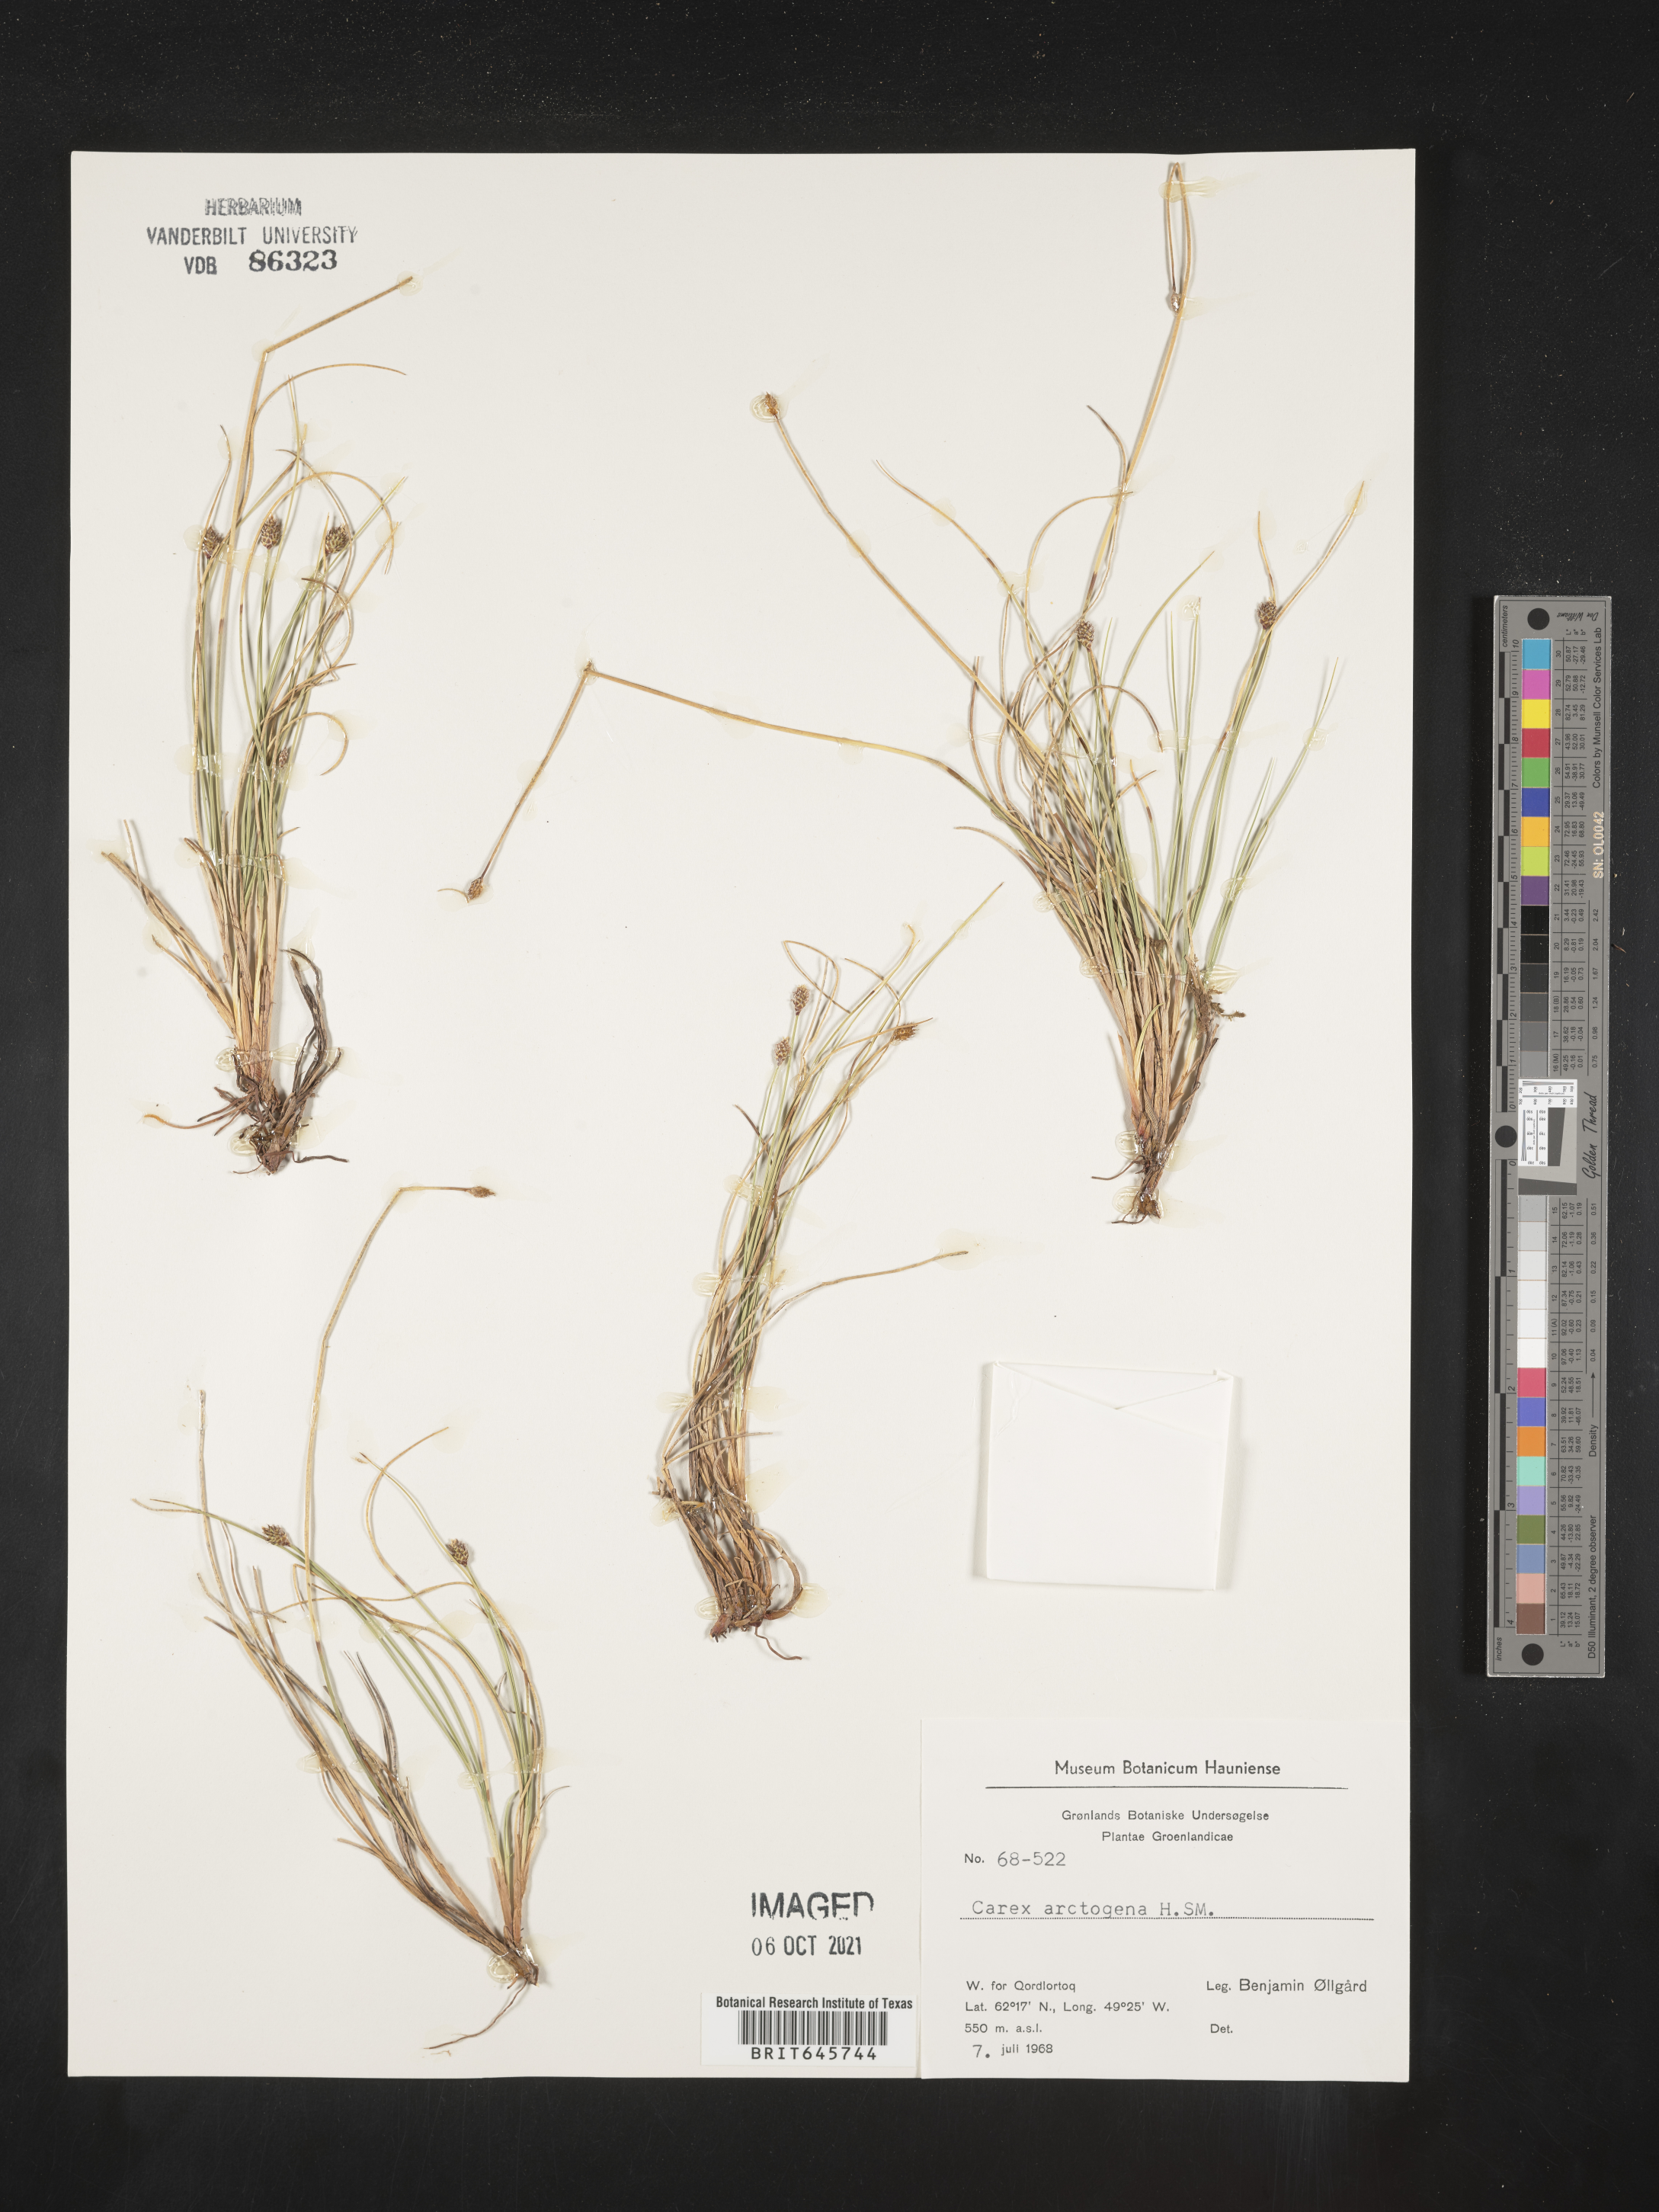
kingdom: Plantae
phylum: Tracheophyta
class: Liliopsida
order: Poales
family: Cyperaceae
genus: Carex
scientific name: Carex arctogena
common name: Black sedge
